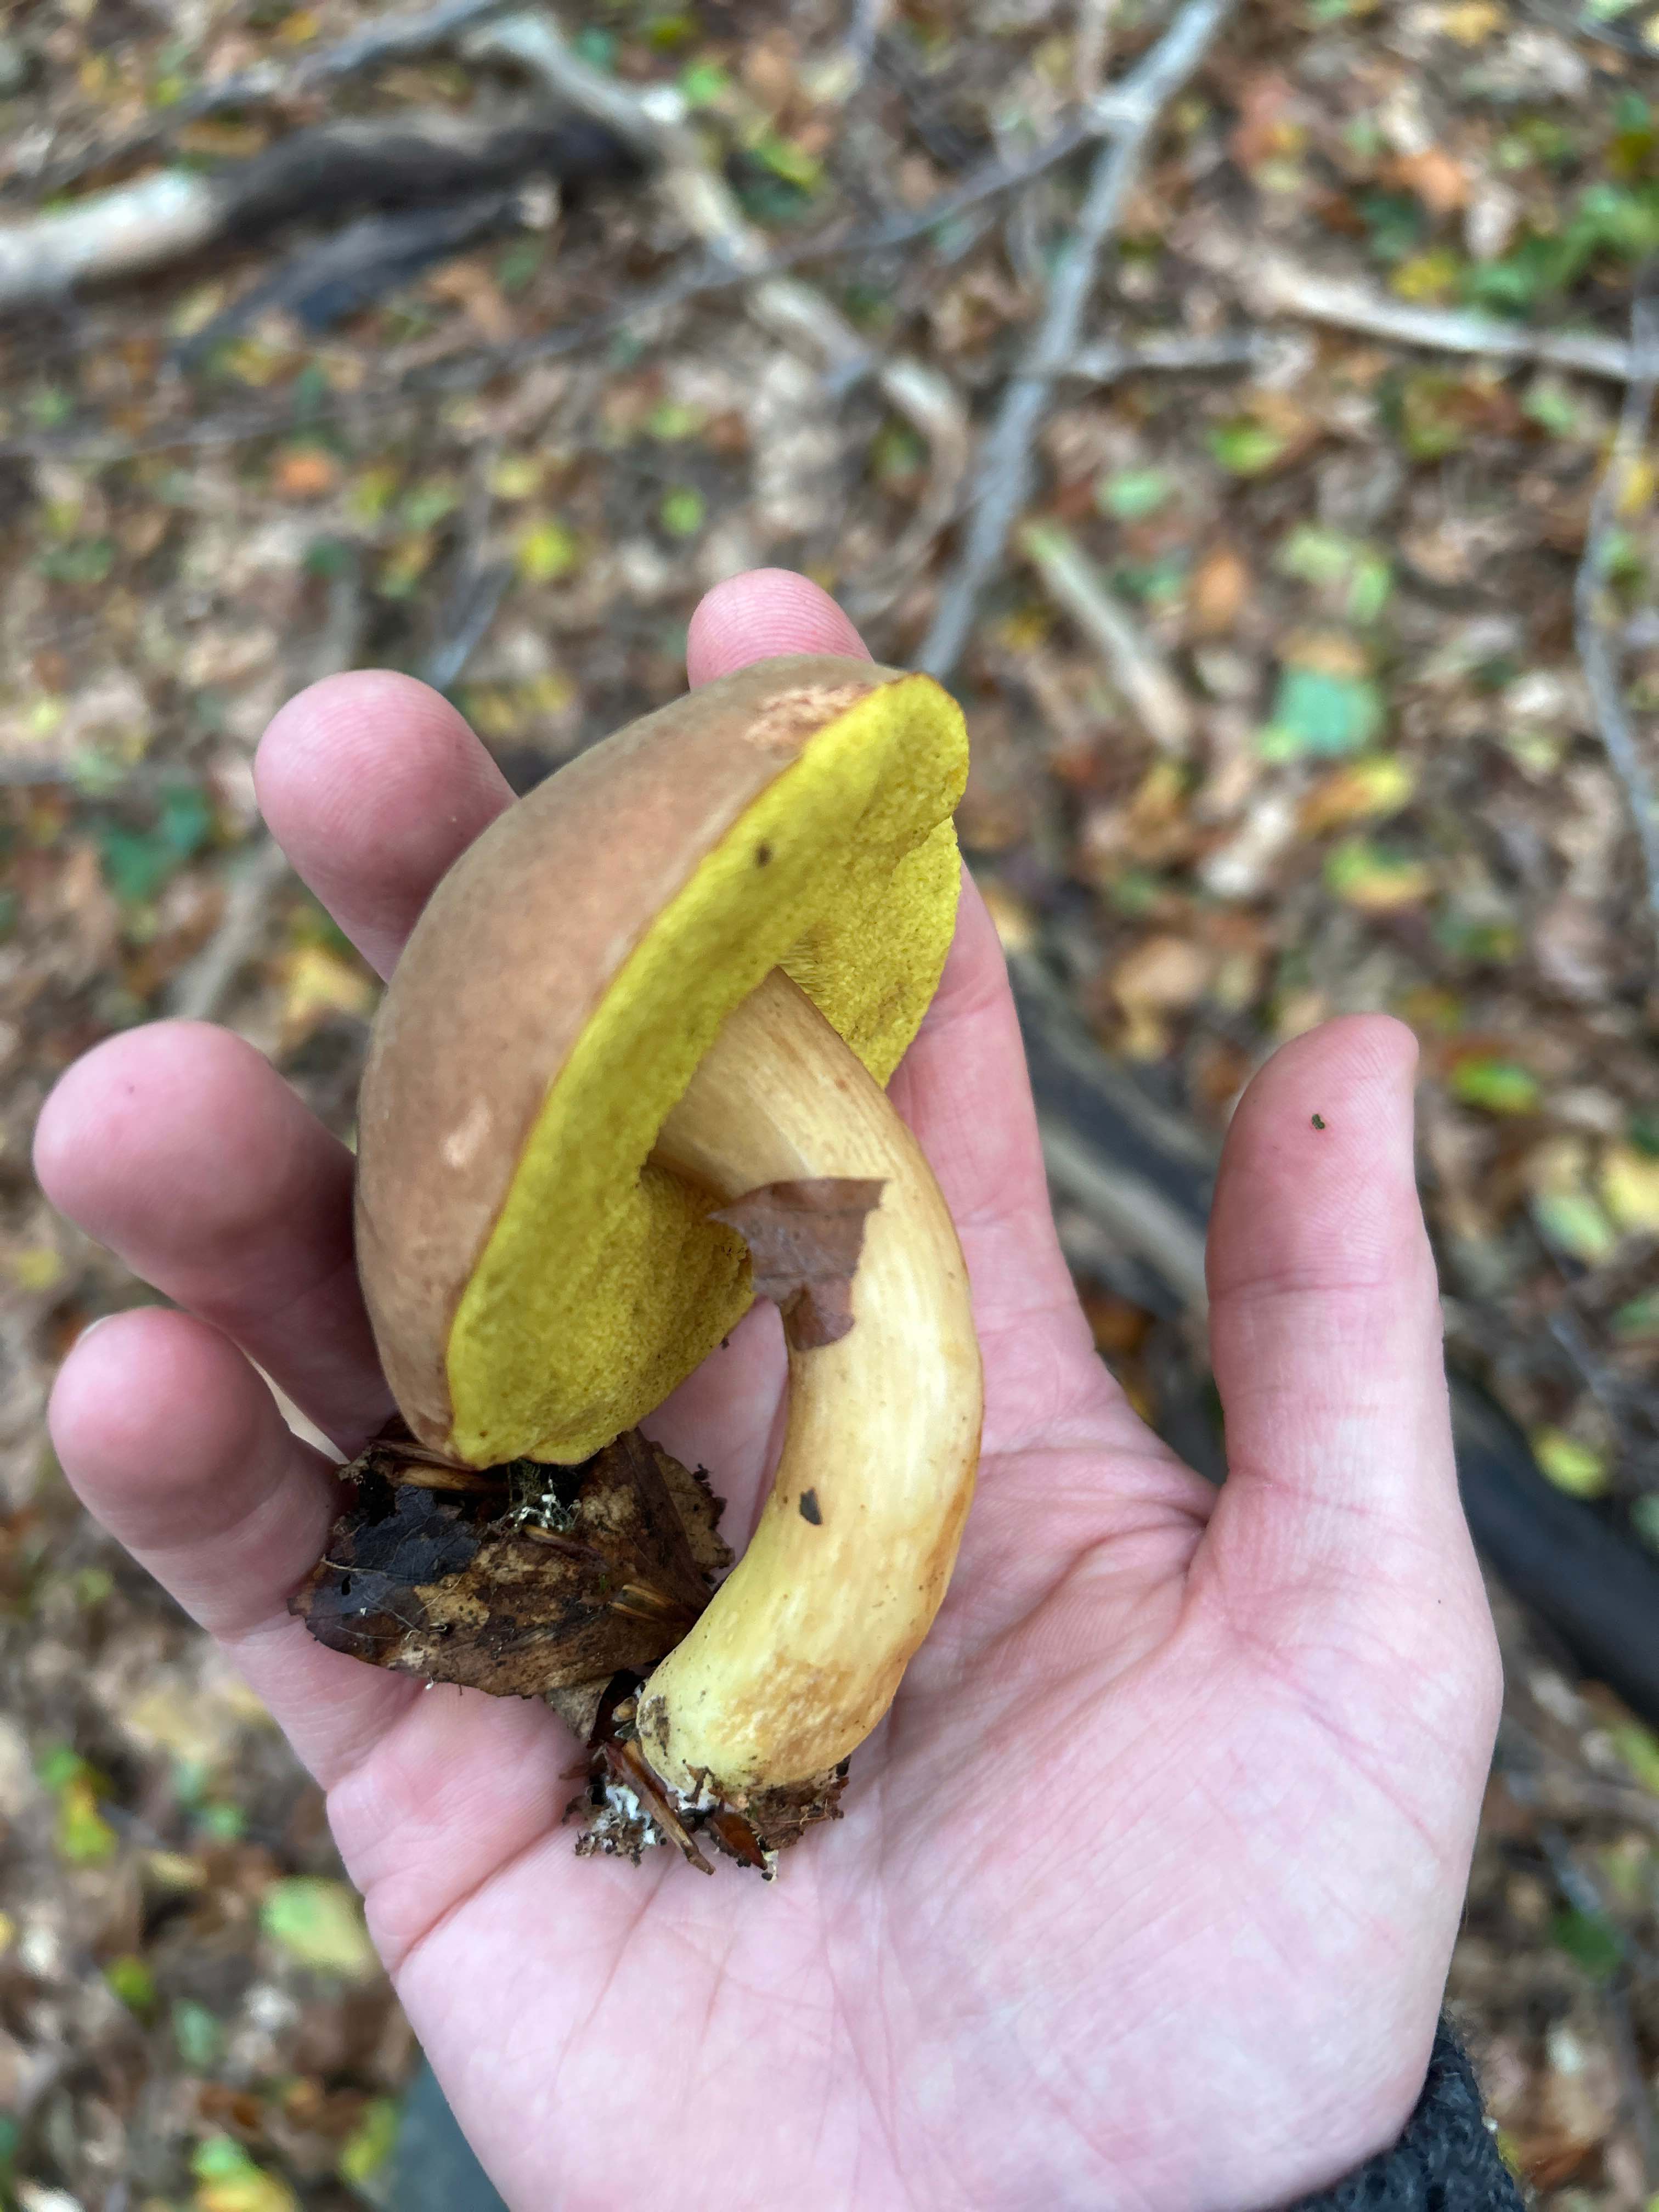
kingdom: Fungi
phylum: Basidiomycota
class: Agaricomycetes
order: Boletales
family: Boletaceae
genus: Xerocomus
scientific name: Xerocomus
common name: filtrørhat
